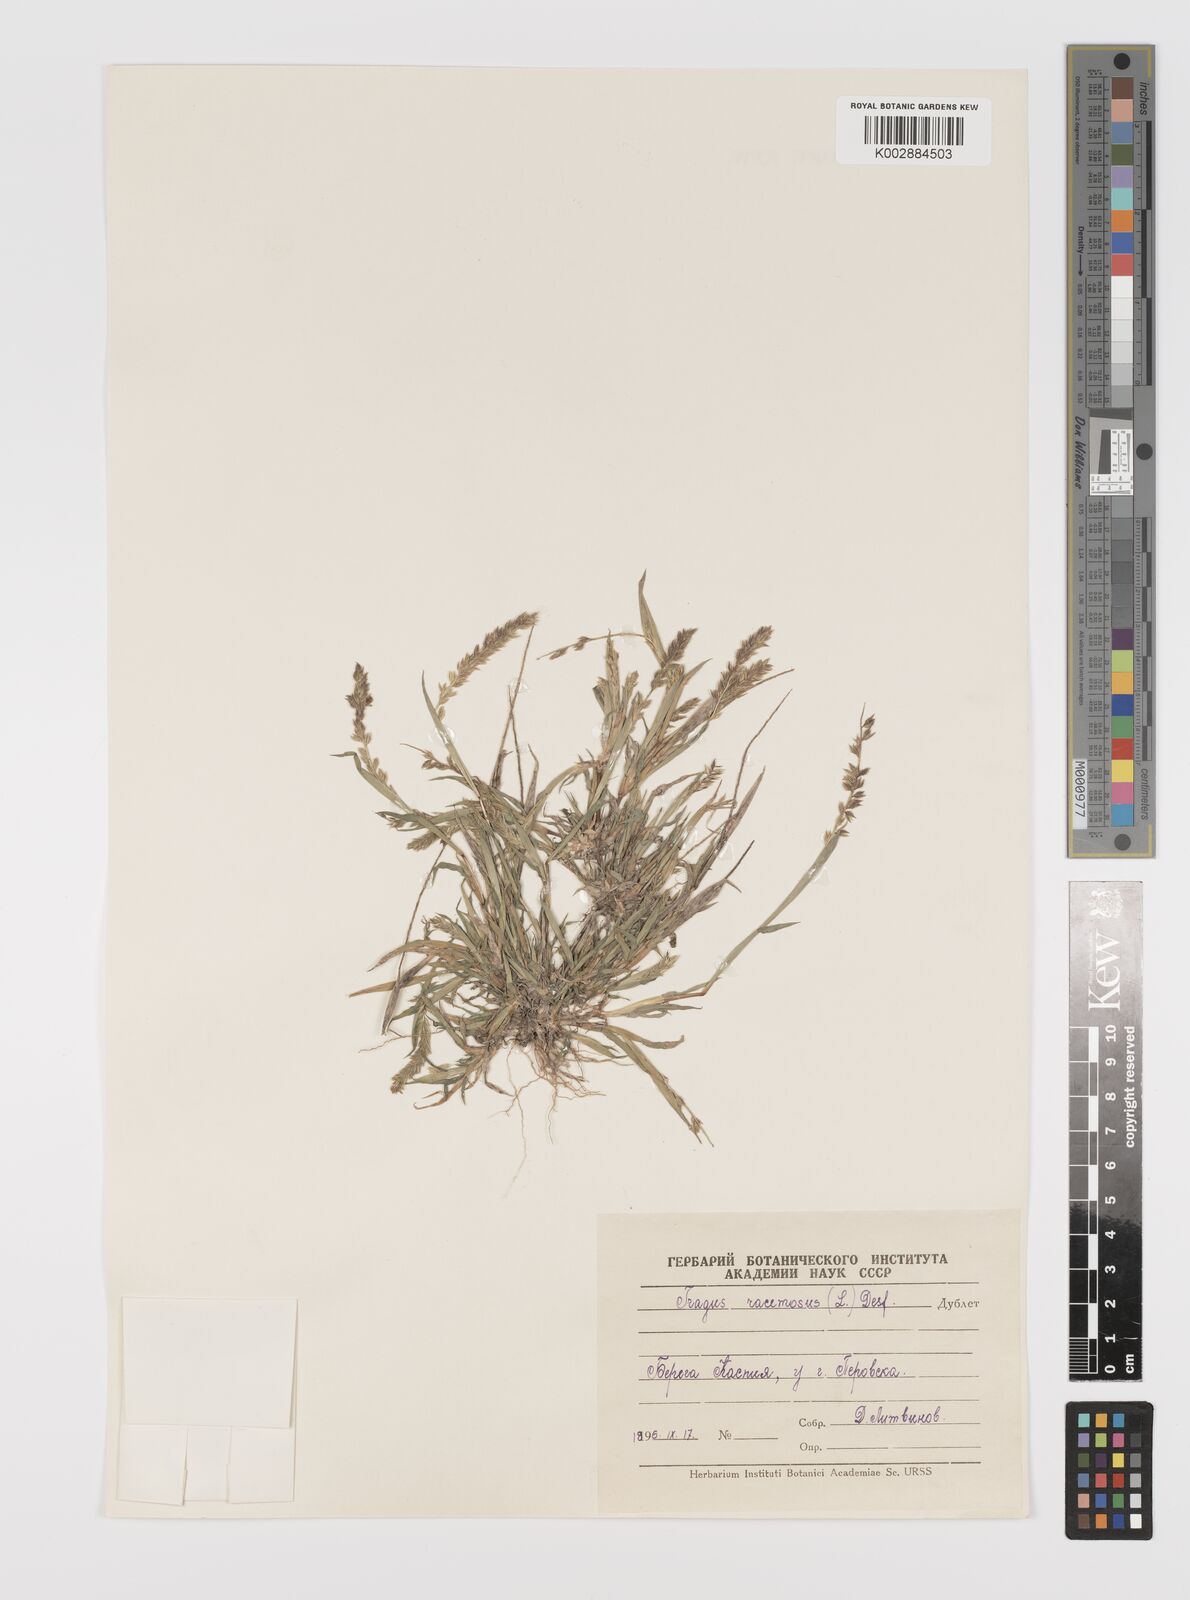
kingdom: Plantae
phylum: Tracheophyta
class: Liliopsida
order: Poales
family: Poaceae
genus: Tragus
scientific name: Tragus racemosus
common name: European bur-grass
